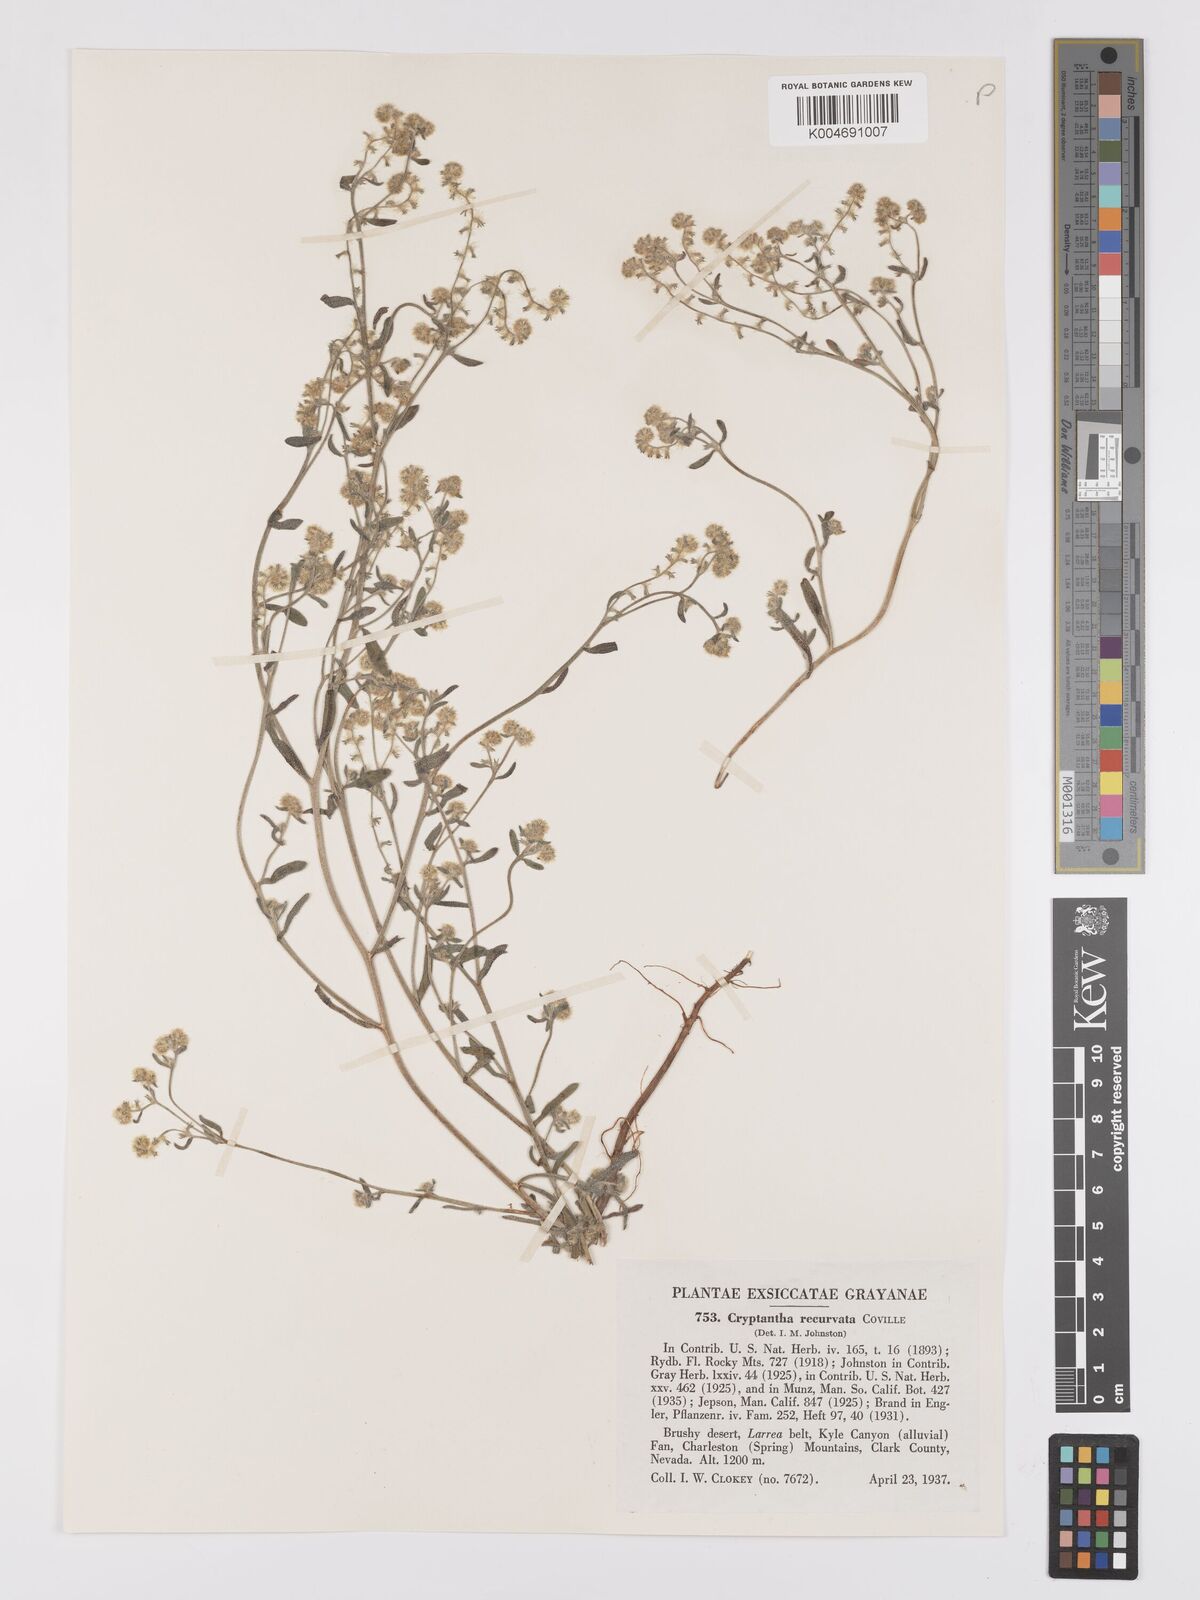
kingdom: Plantae
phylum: Tracheophyta
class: Magnoliopsida
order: Boraginales
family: Boraginaceae
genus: Cryptantha
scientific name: Cryptantha recurvata
